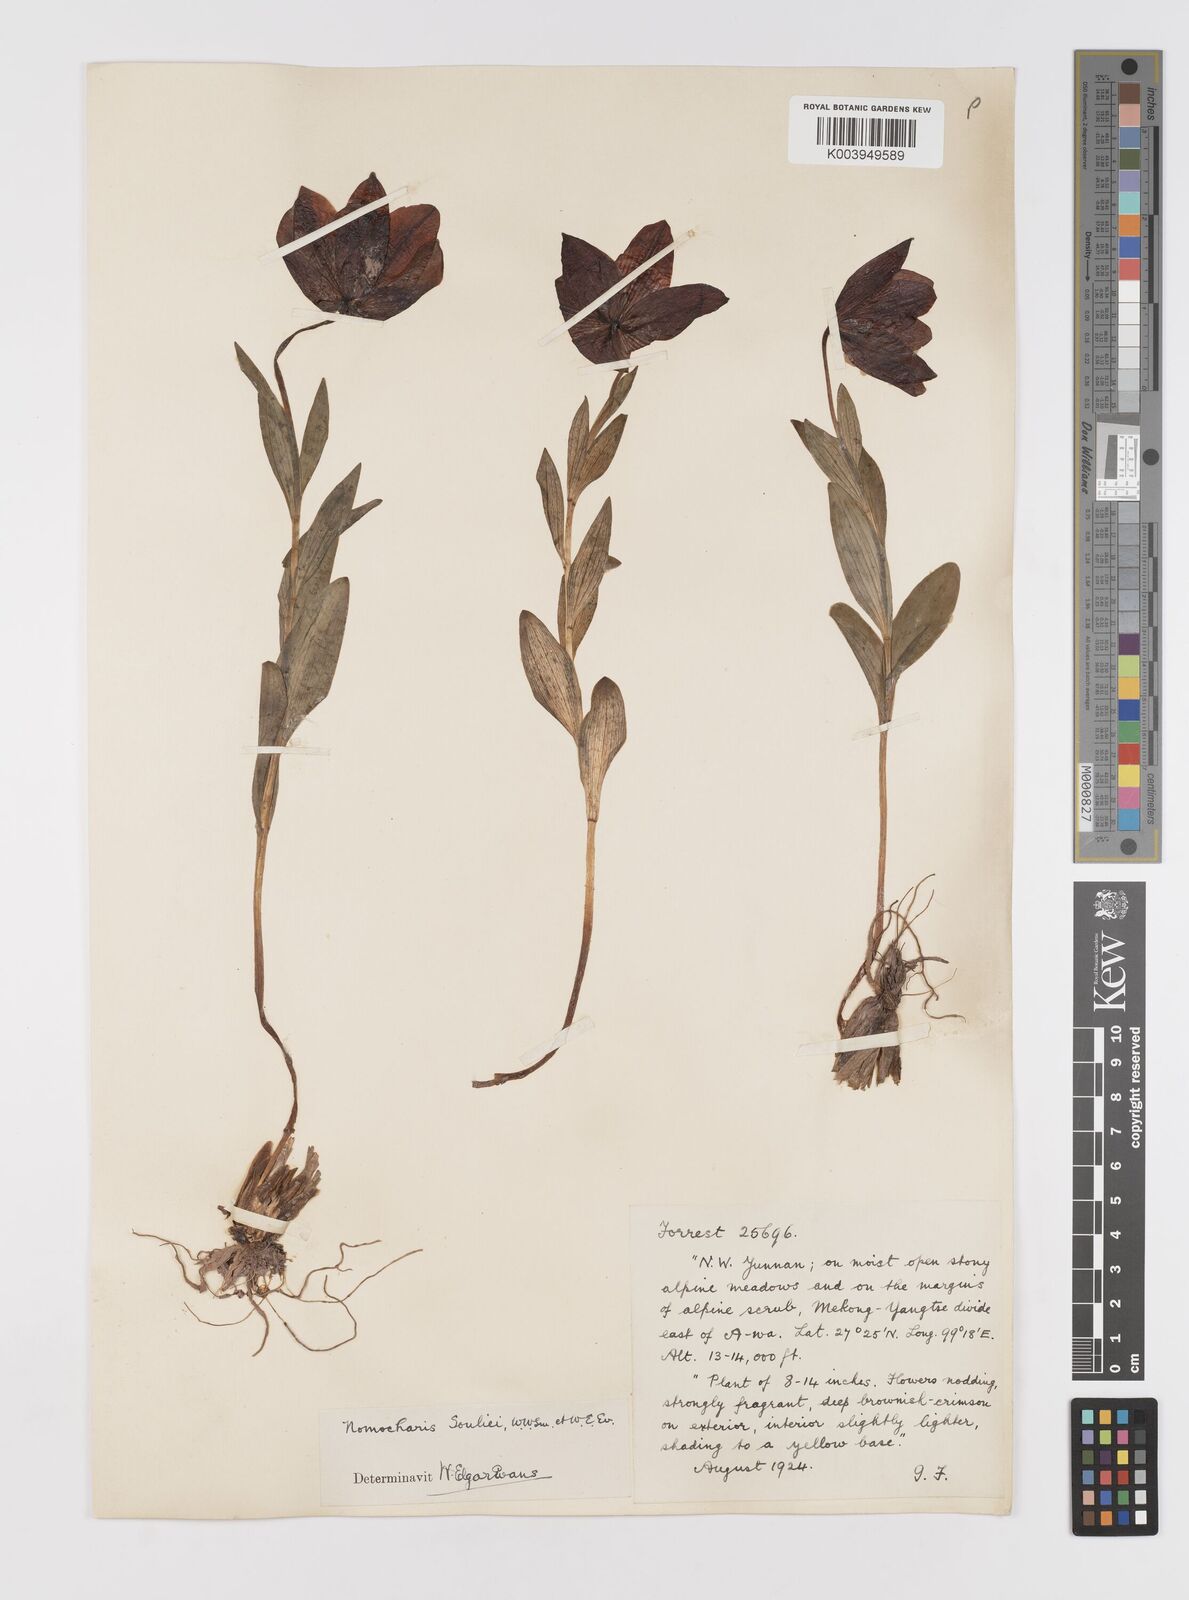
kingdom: Plantae
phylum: Tracheophyta
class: Liliopsida
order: Liliales
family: Liliaceae
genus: Lilium
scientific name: Lilium souliei
